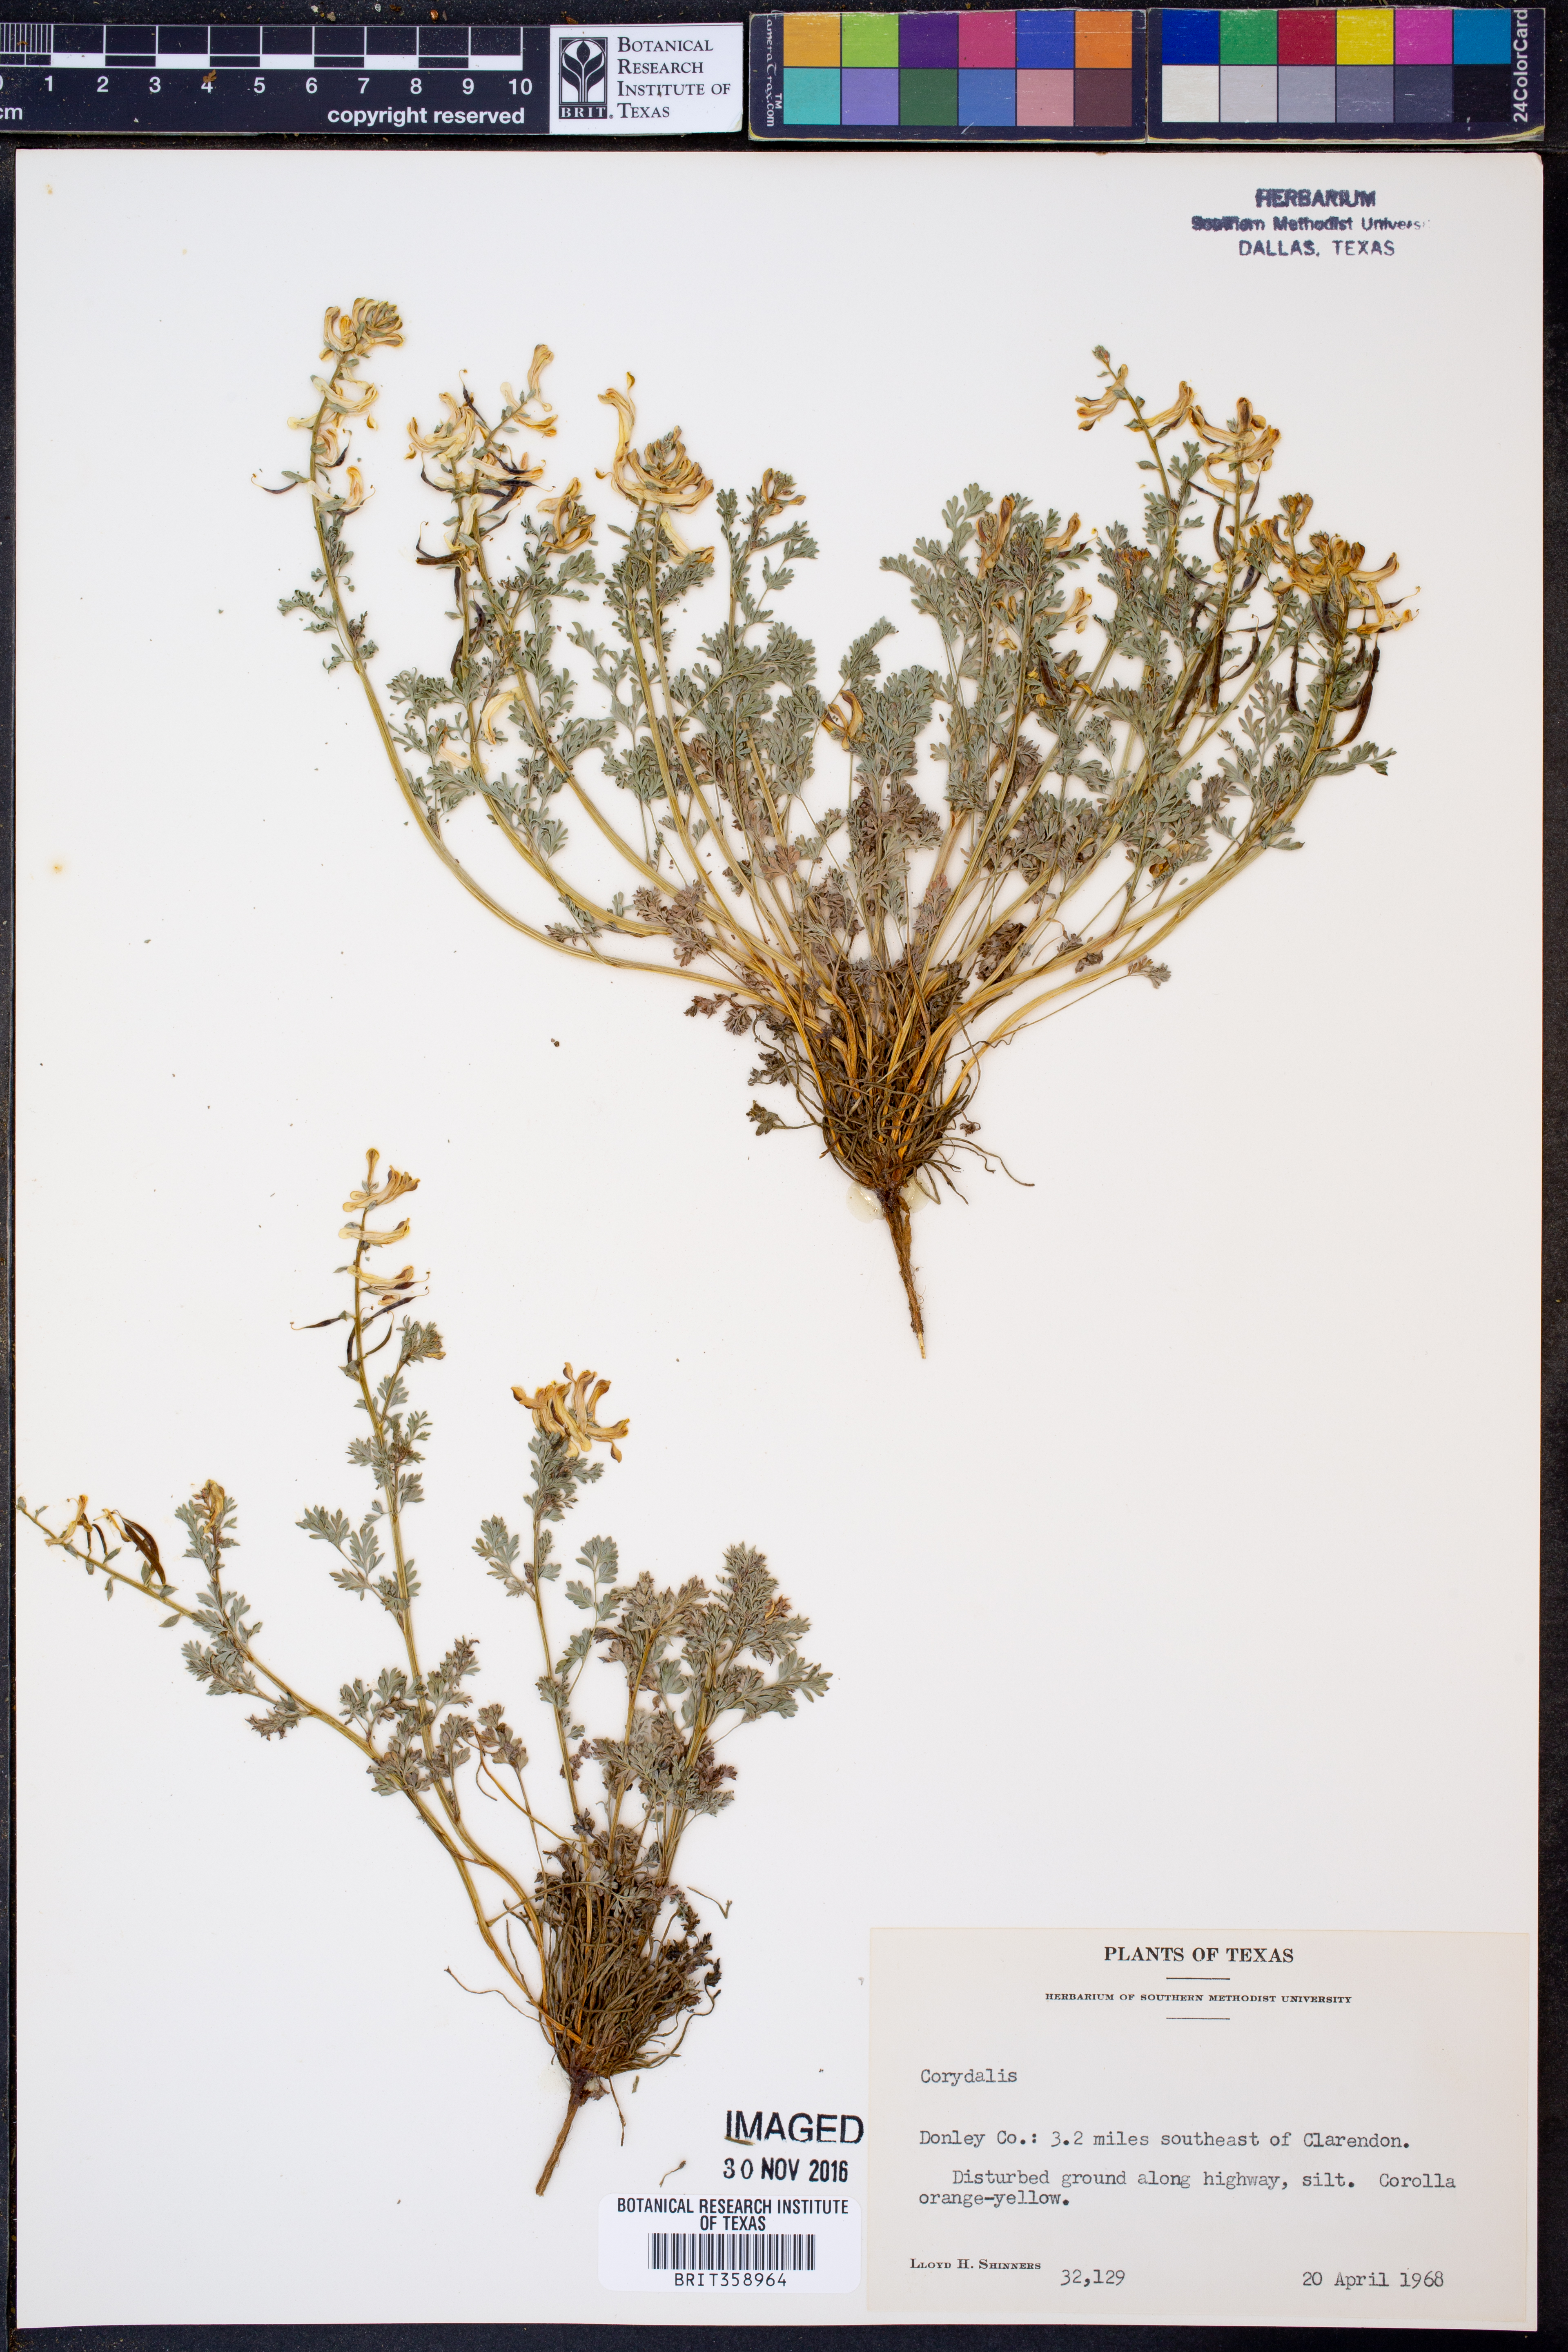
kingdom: Plantae
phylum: Tracheophyta
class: Magnoliopsida
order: Ranunculales
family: Papaveraceae
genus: Corydalis
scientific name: Corydalis
